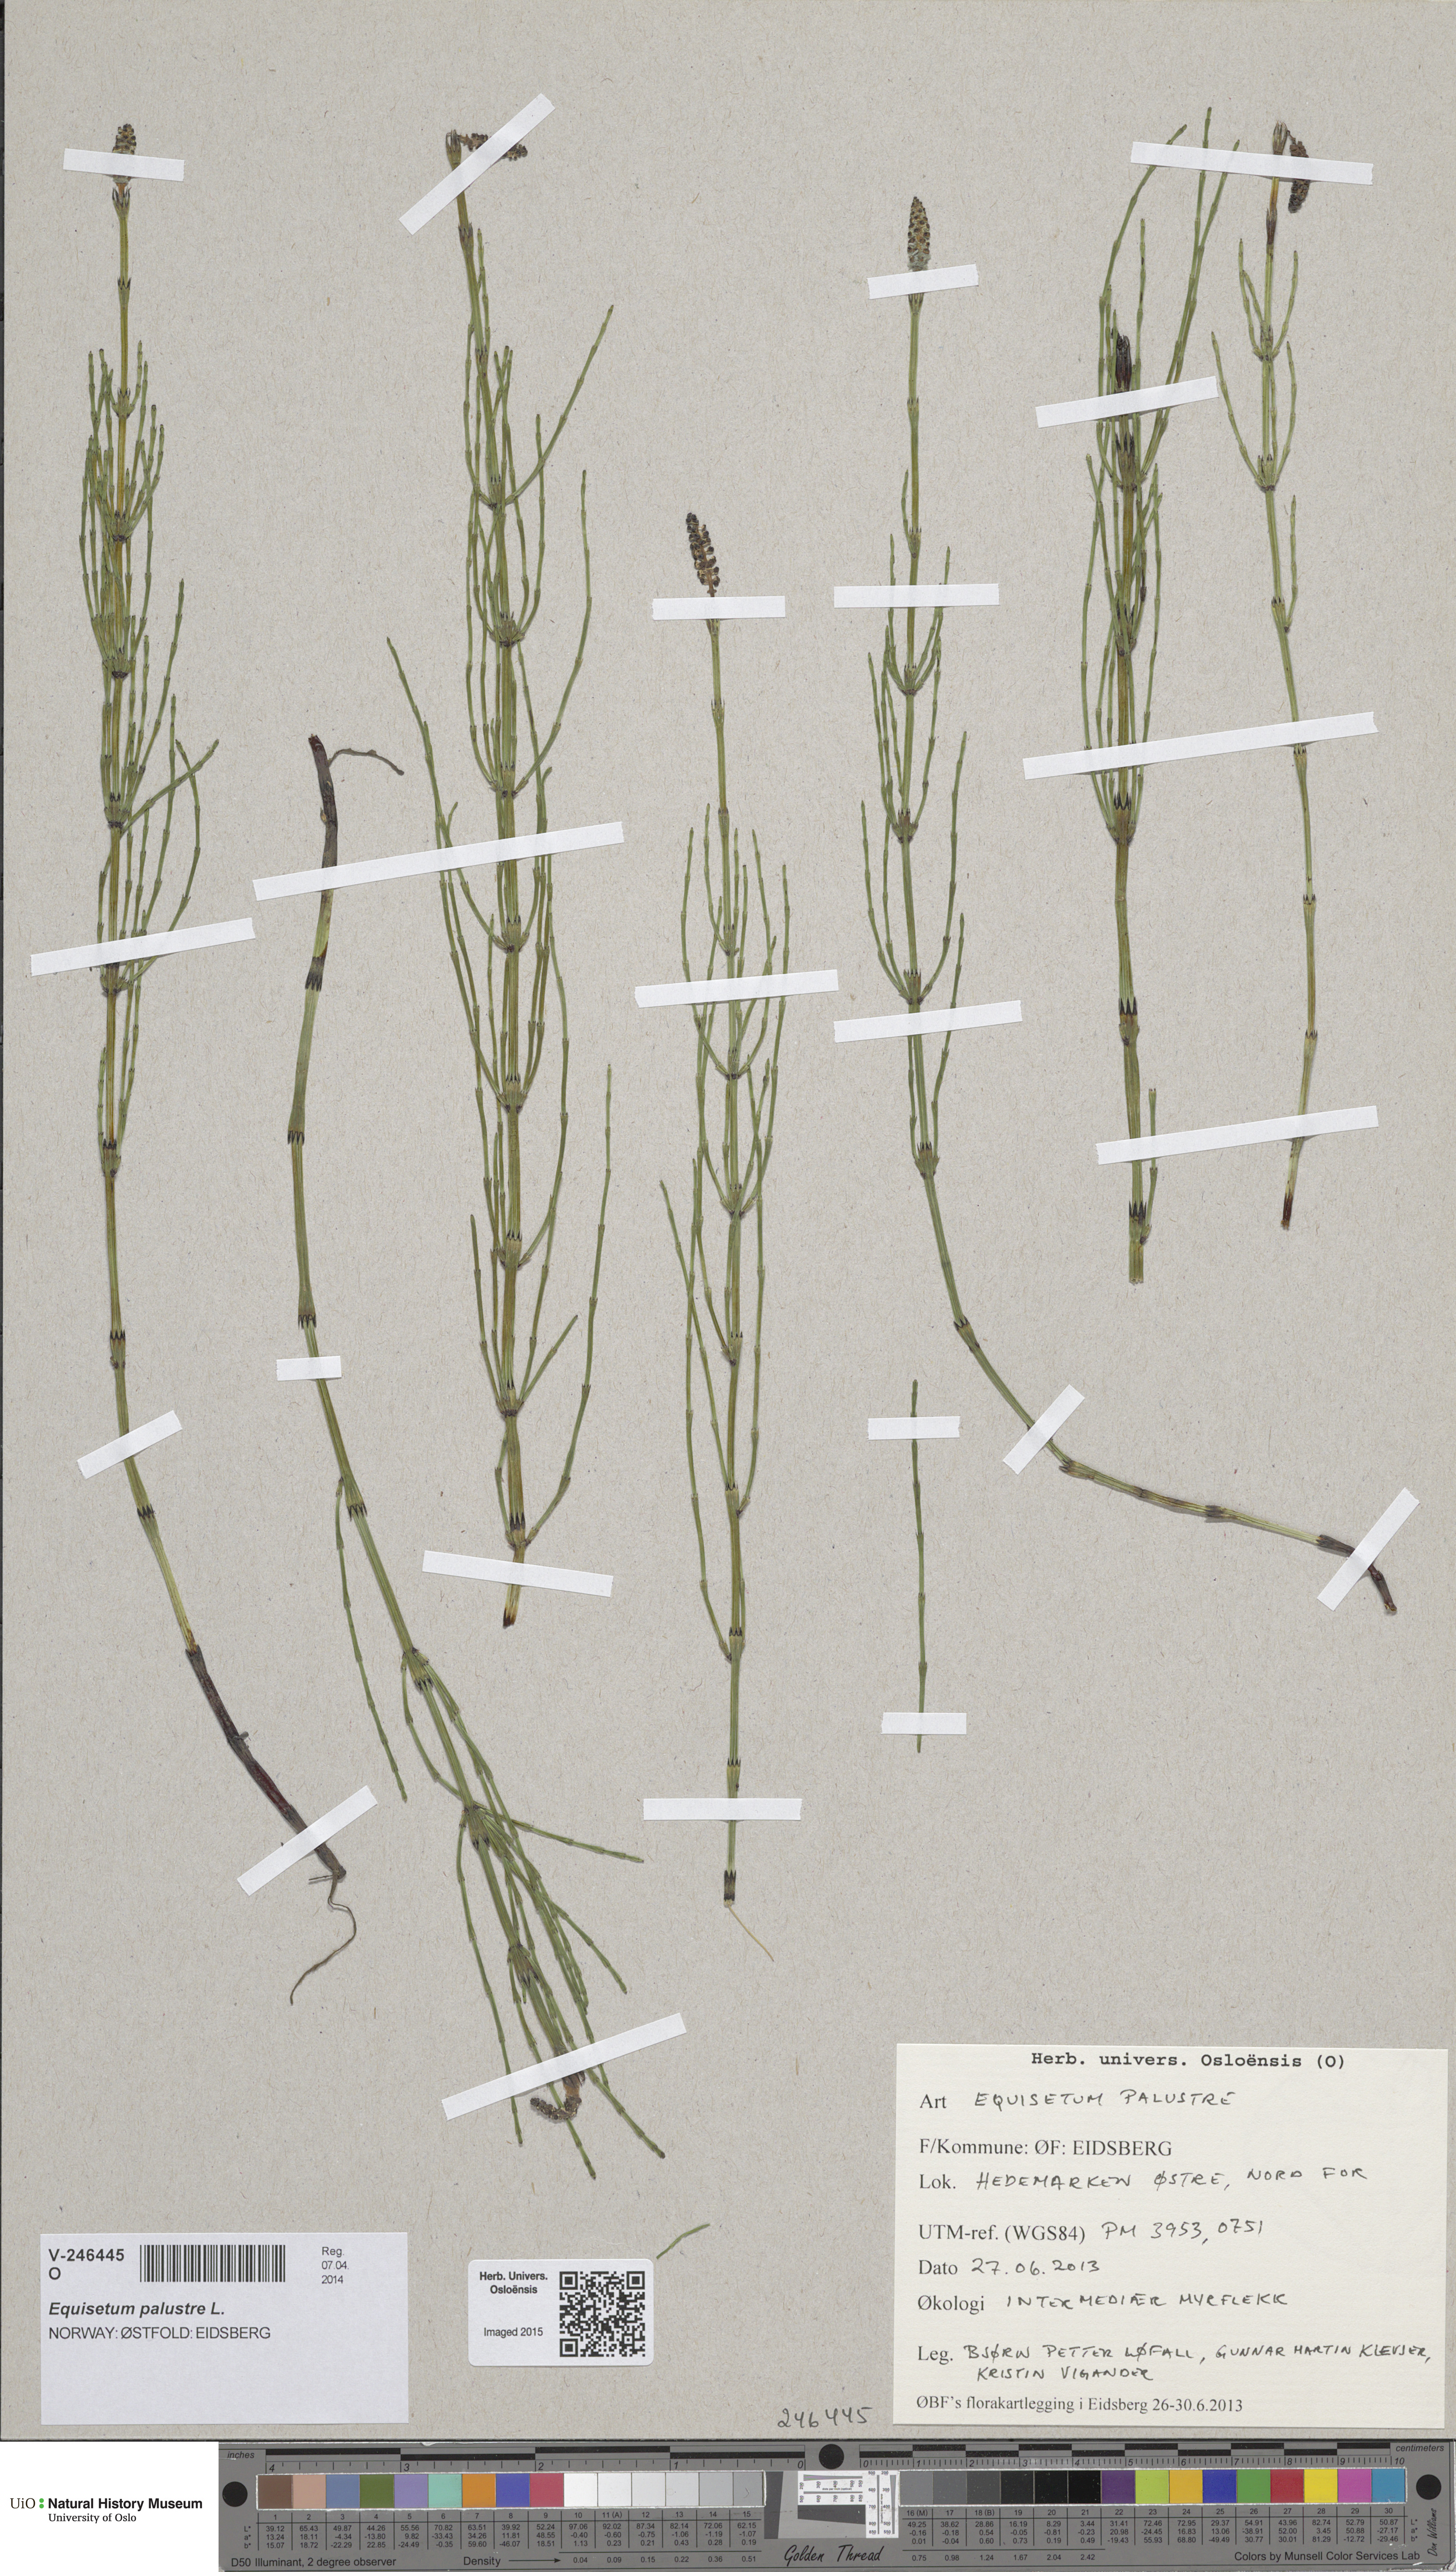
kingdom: Plantae
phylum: Tracheophyta
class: Polypodiopsida
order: Equisetales
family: Equisetaceae
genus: Equisetum
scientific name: Equisetum palustre
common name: Marsh horsetail
